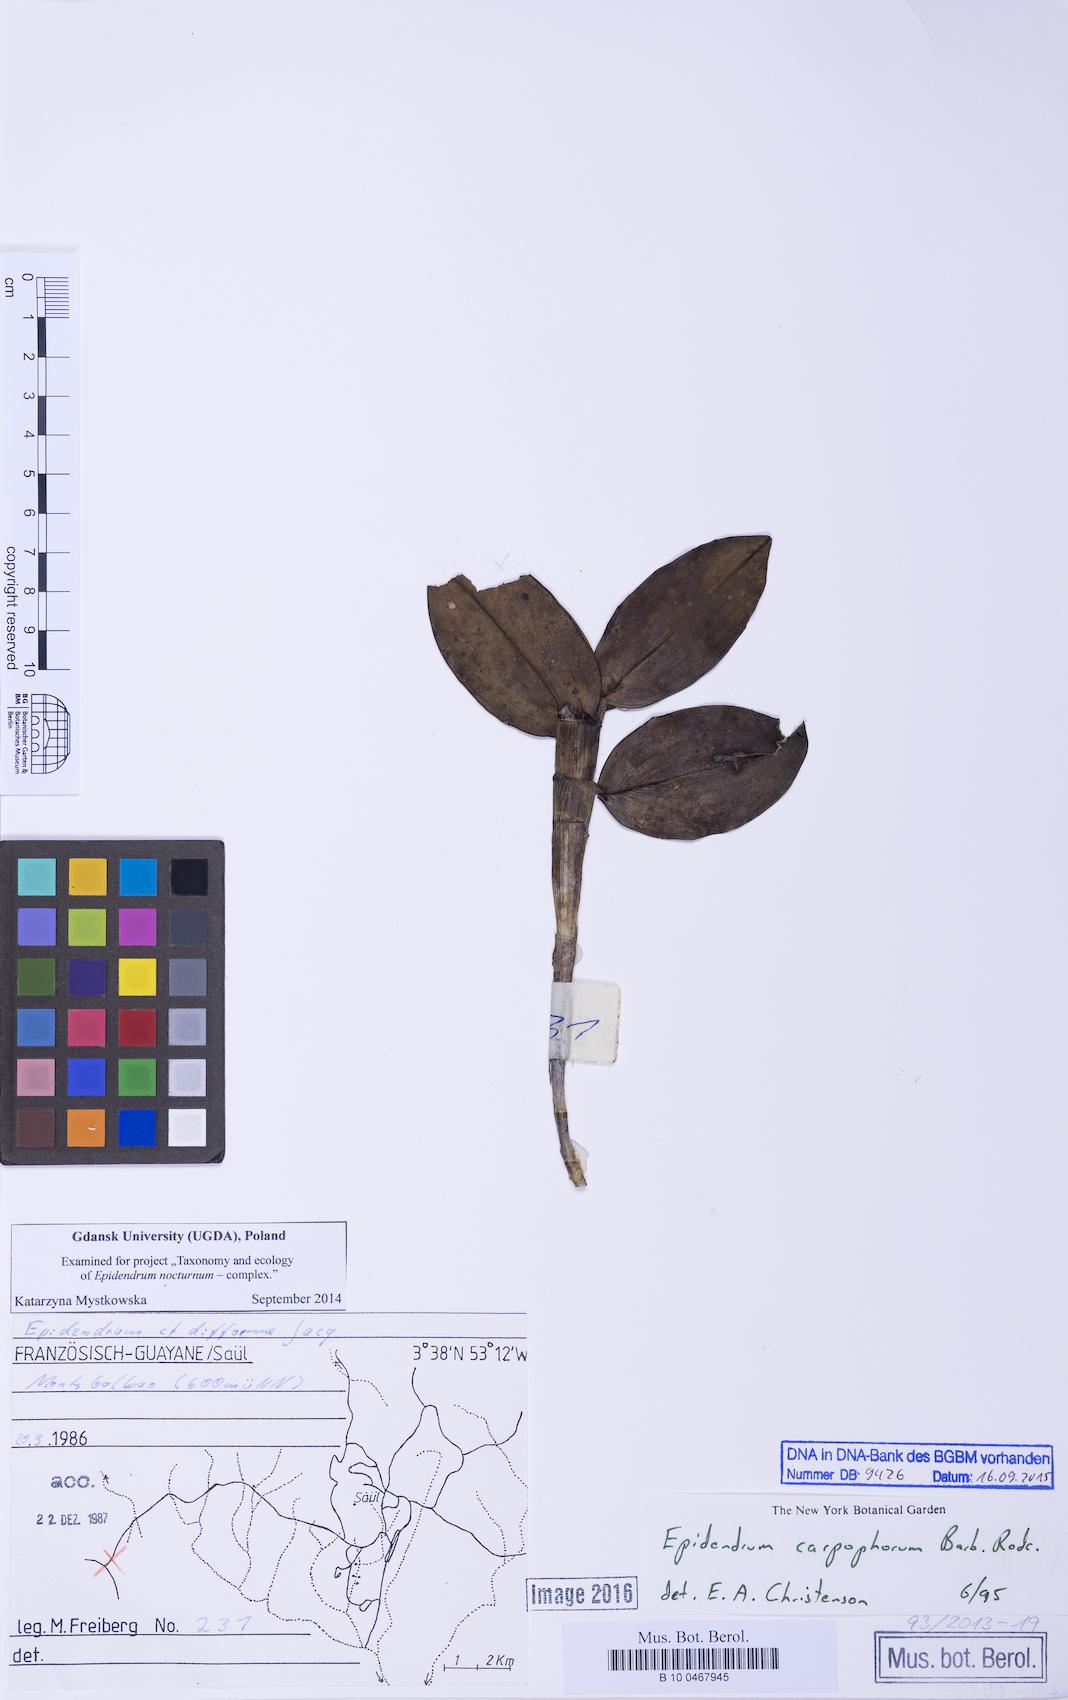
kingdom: Plantae
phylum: Tracheophyta
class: Liliopsida
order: Asparagales
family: Orchidaceae
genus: Epidendrum
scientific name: Epidendrum nocturnum
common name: Night scented orchid
